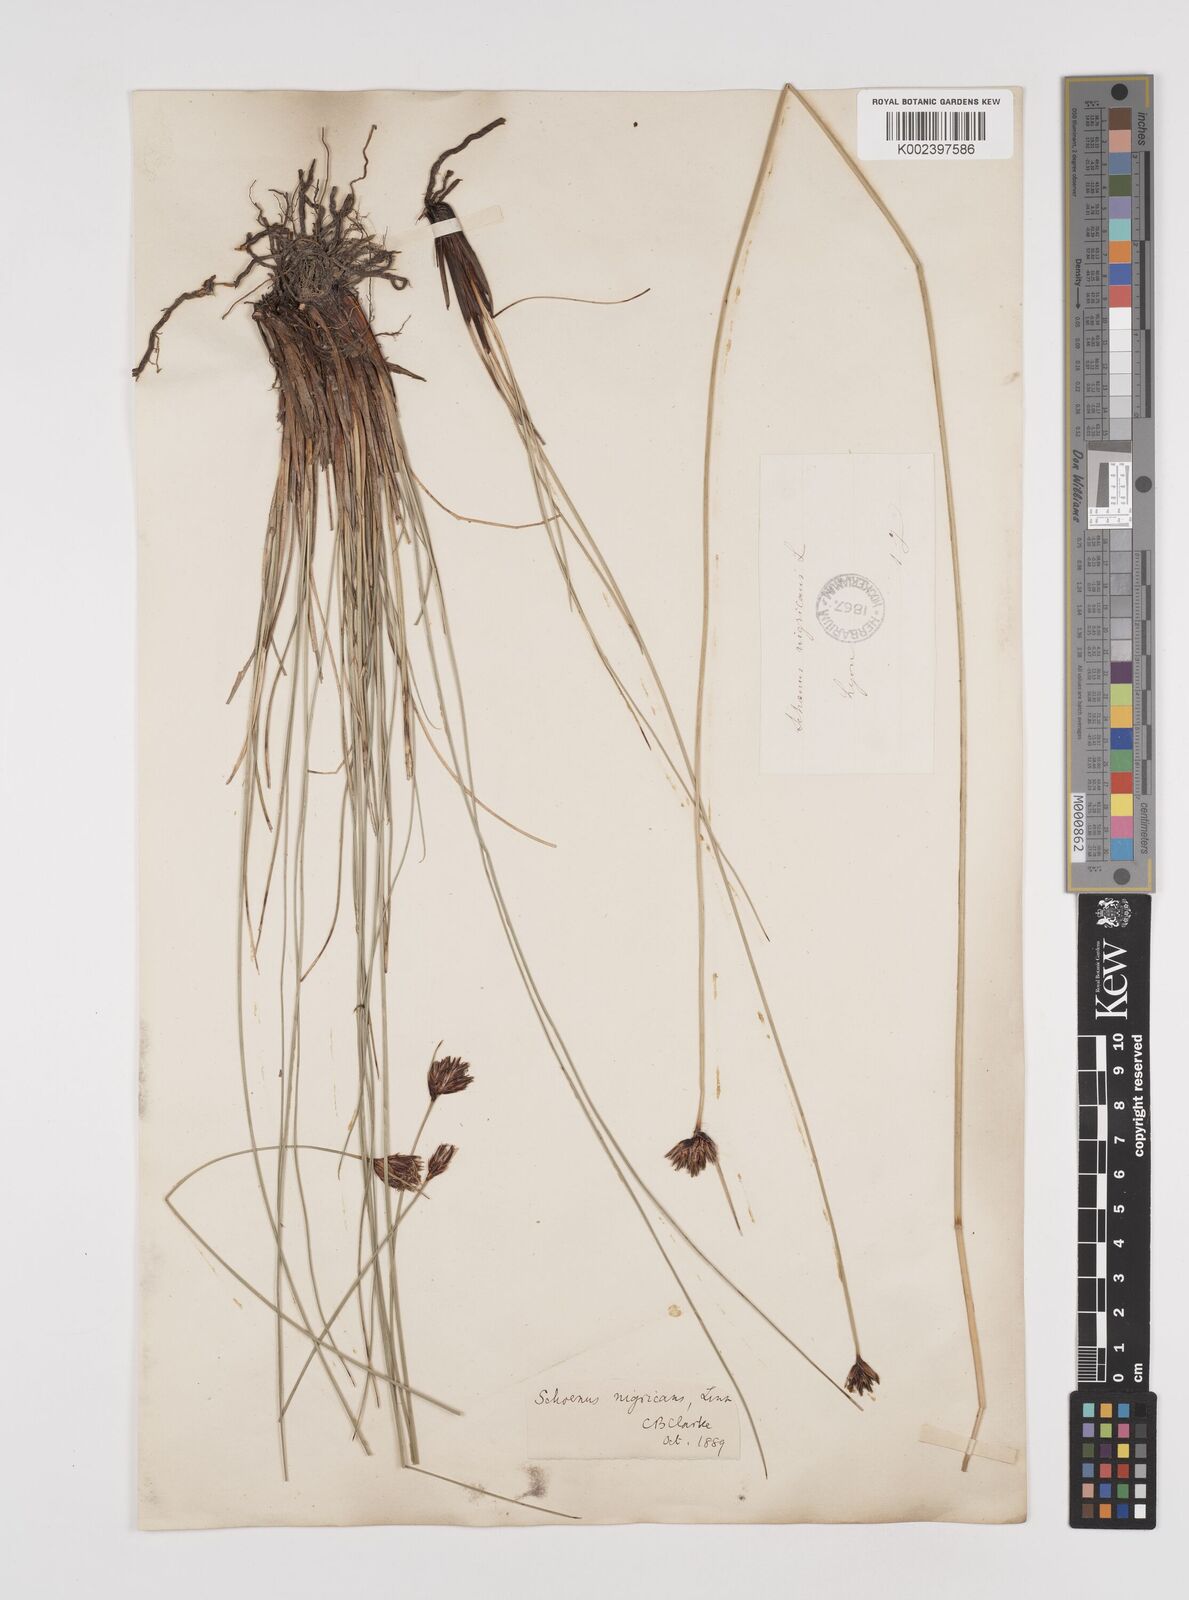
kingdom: Plantae
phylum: Tracheophyta
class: Liliopsida
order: Poales
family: Cyperaceae
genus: Schoenus
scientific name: Schoenus nigricans
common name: Black bog-rush
